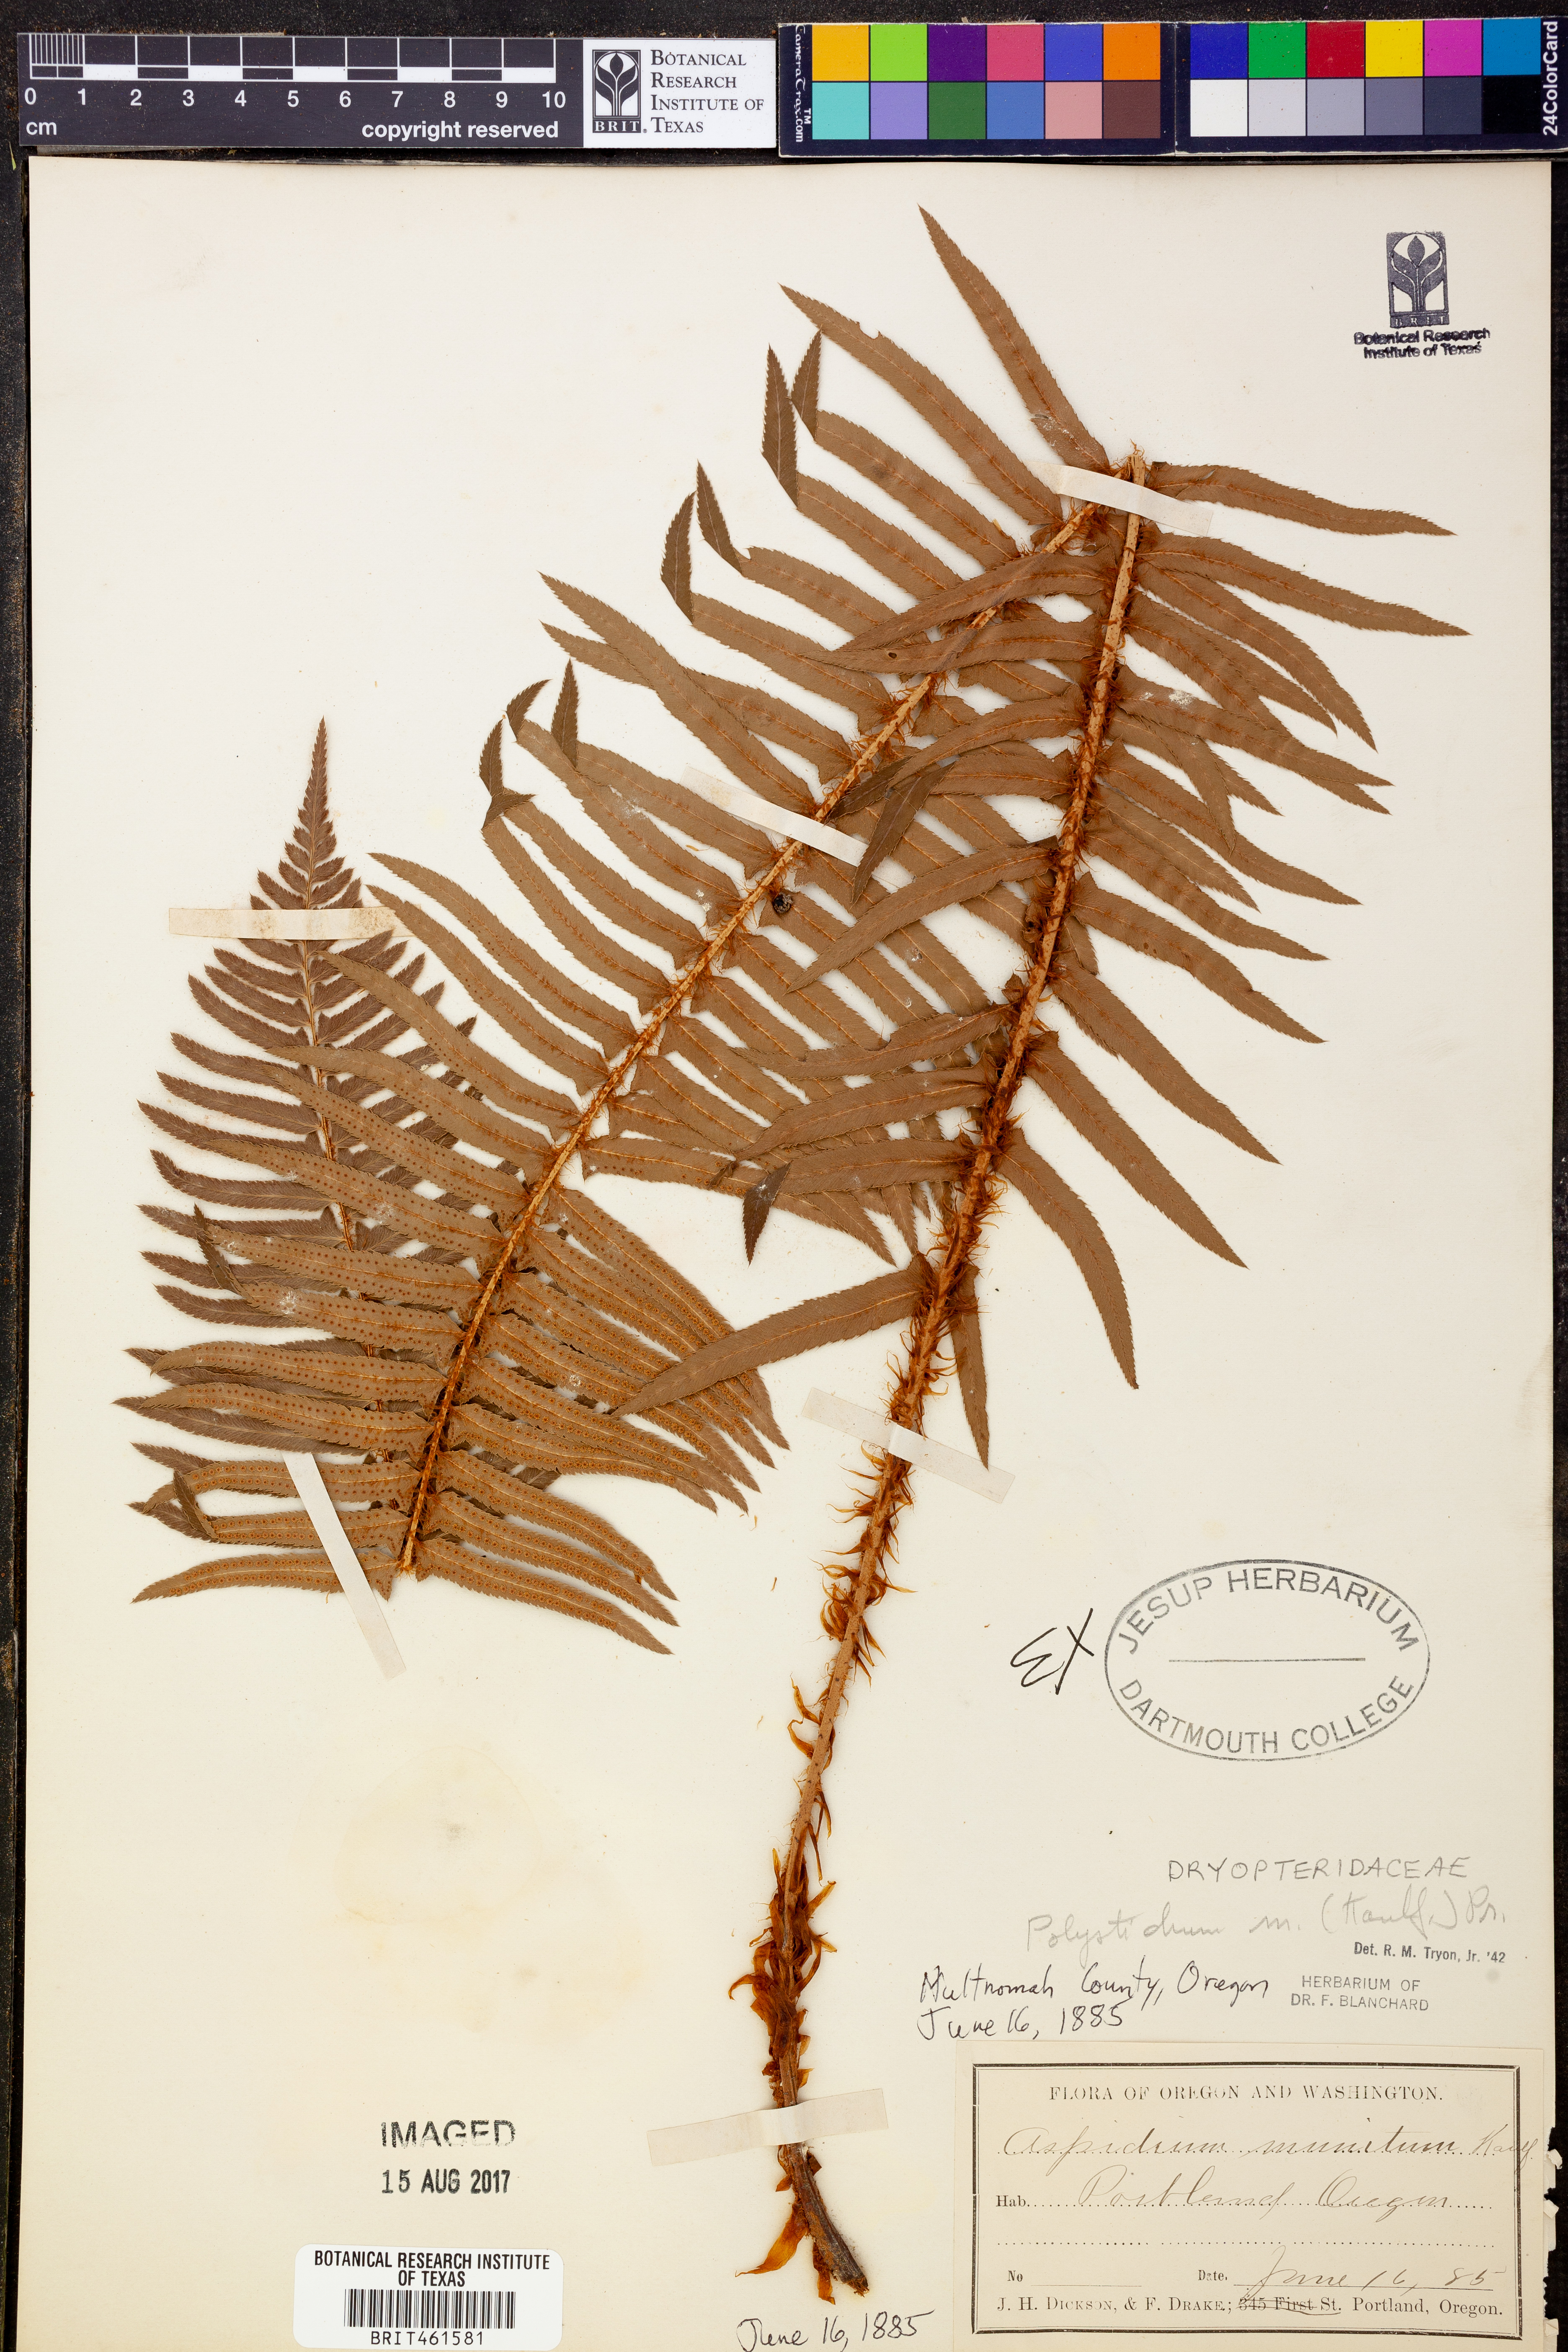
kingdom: Plantae
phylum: Tracheophyta
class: Polypodiopsida
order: Polypodiales
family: Dryopteridaceae
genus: Polystichum
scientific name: Polystichum munitum
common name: Western sword-fern
